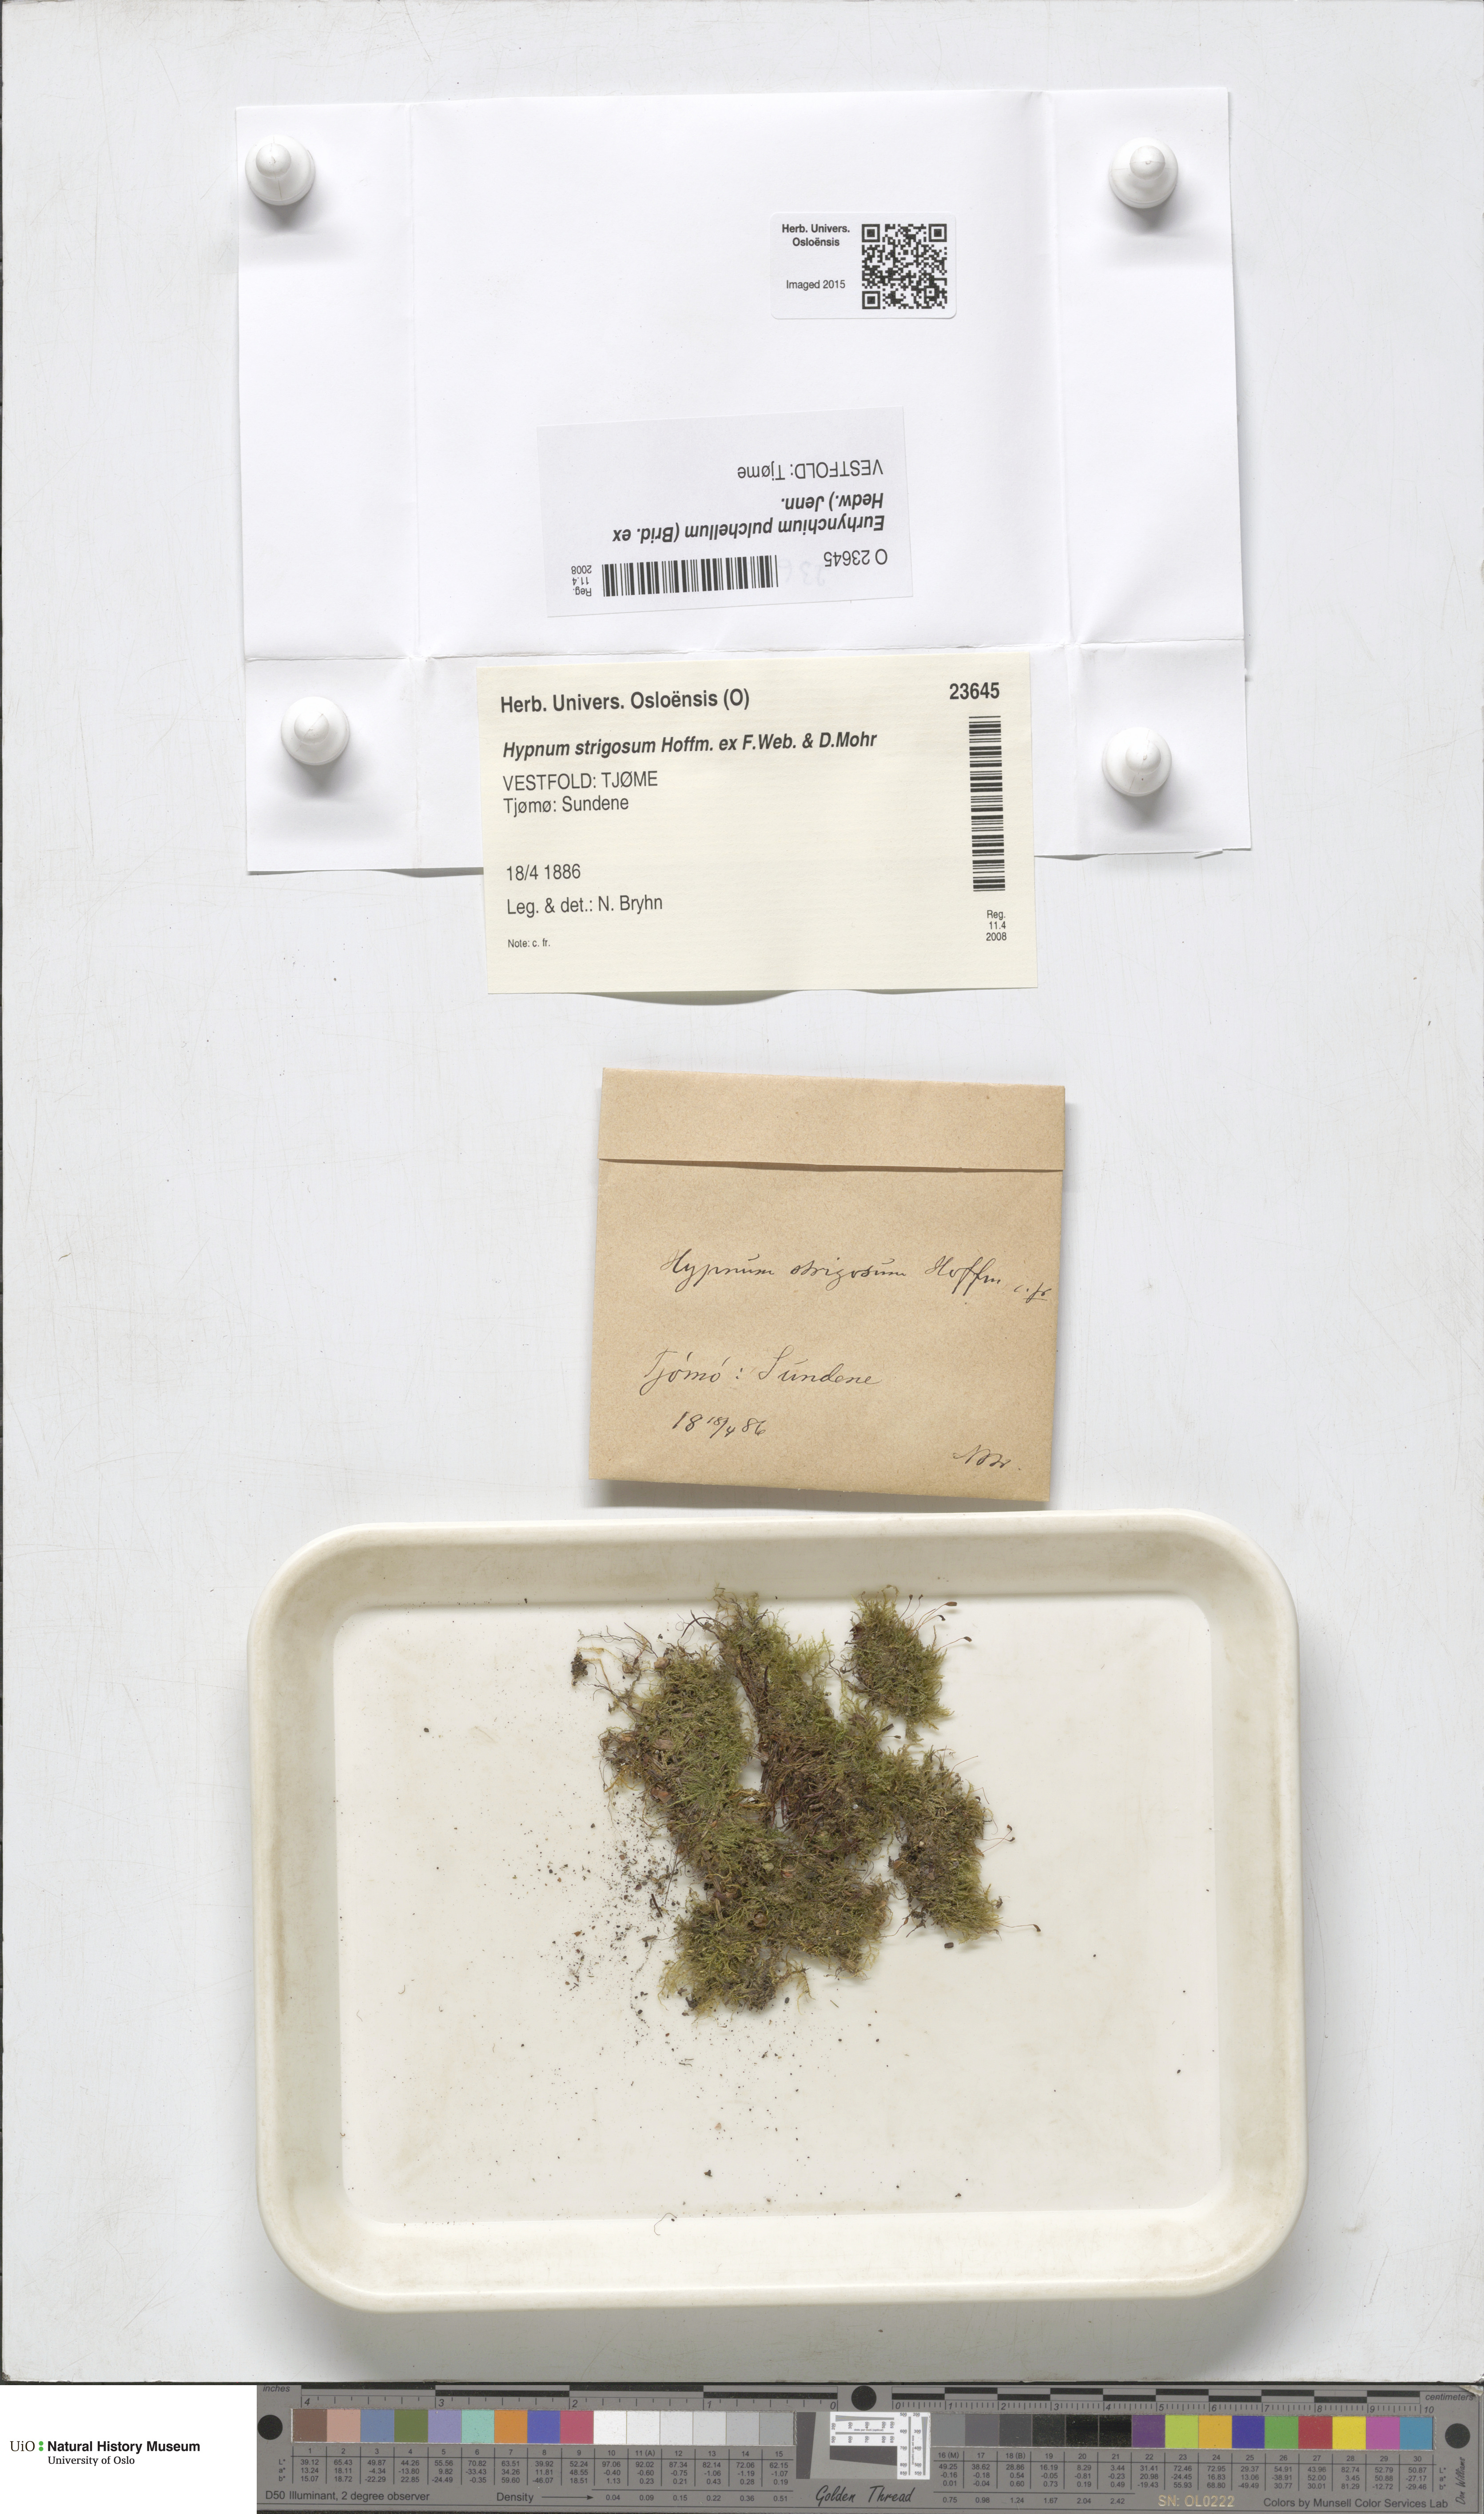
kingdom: Plantae
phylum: Bryophyta
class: Bryopsida
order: Hypnales
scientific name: Hypnales
